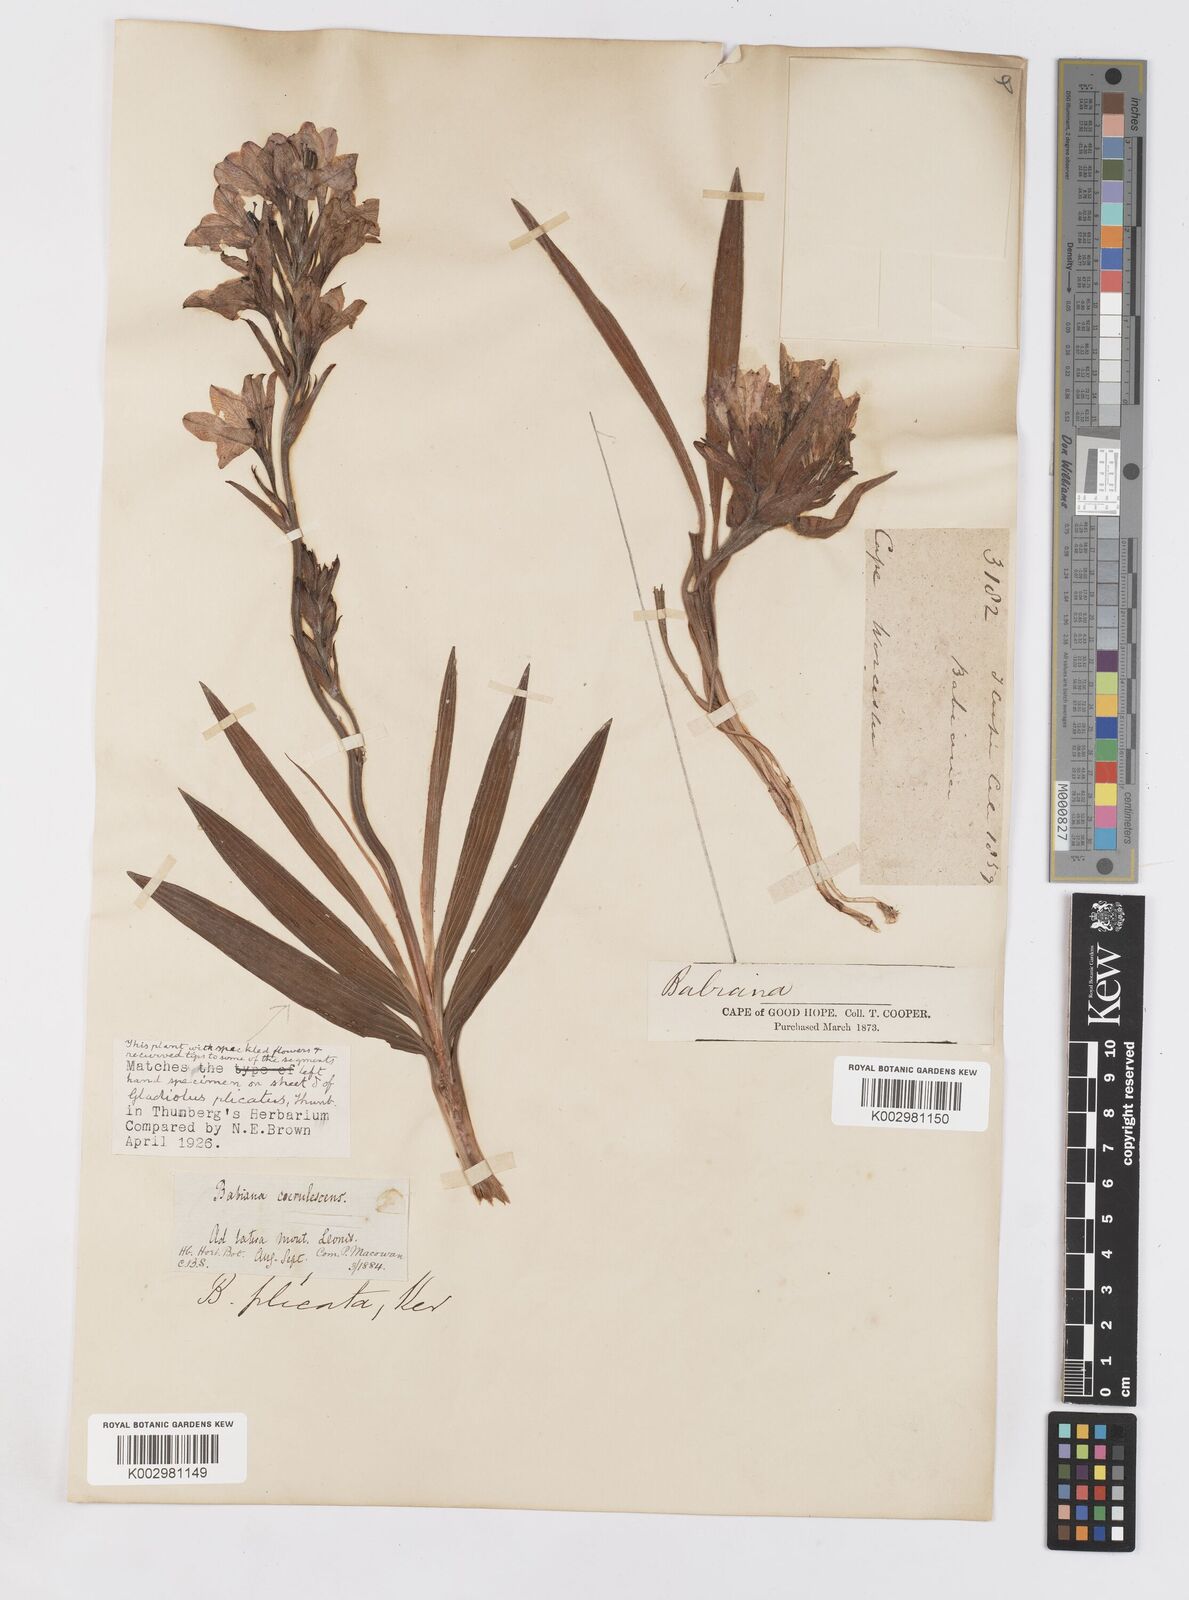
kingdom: Plantae
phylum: Tracheophyta
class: Liliopsida
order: Asparagales
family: Iridaceae
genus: Babiana
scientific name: Babiana fragrans
